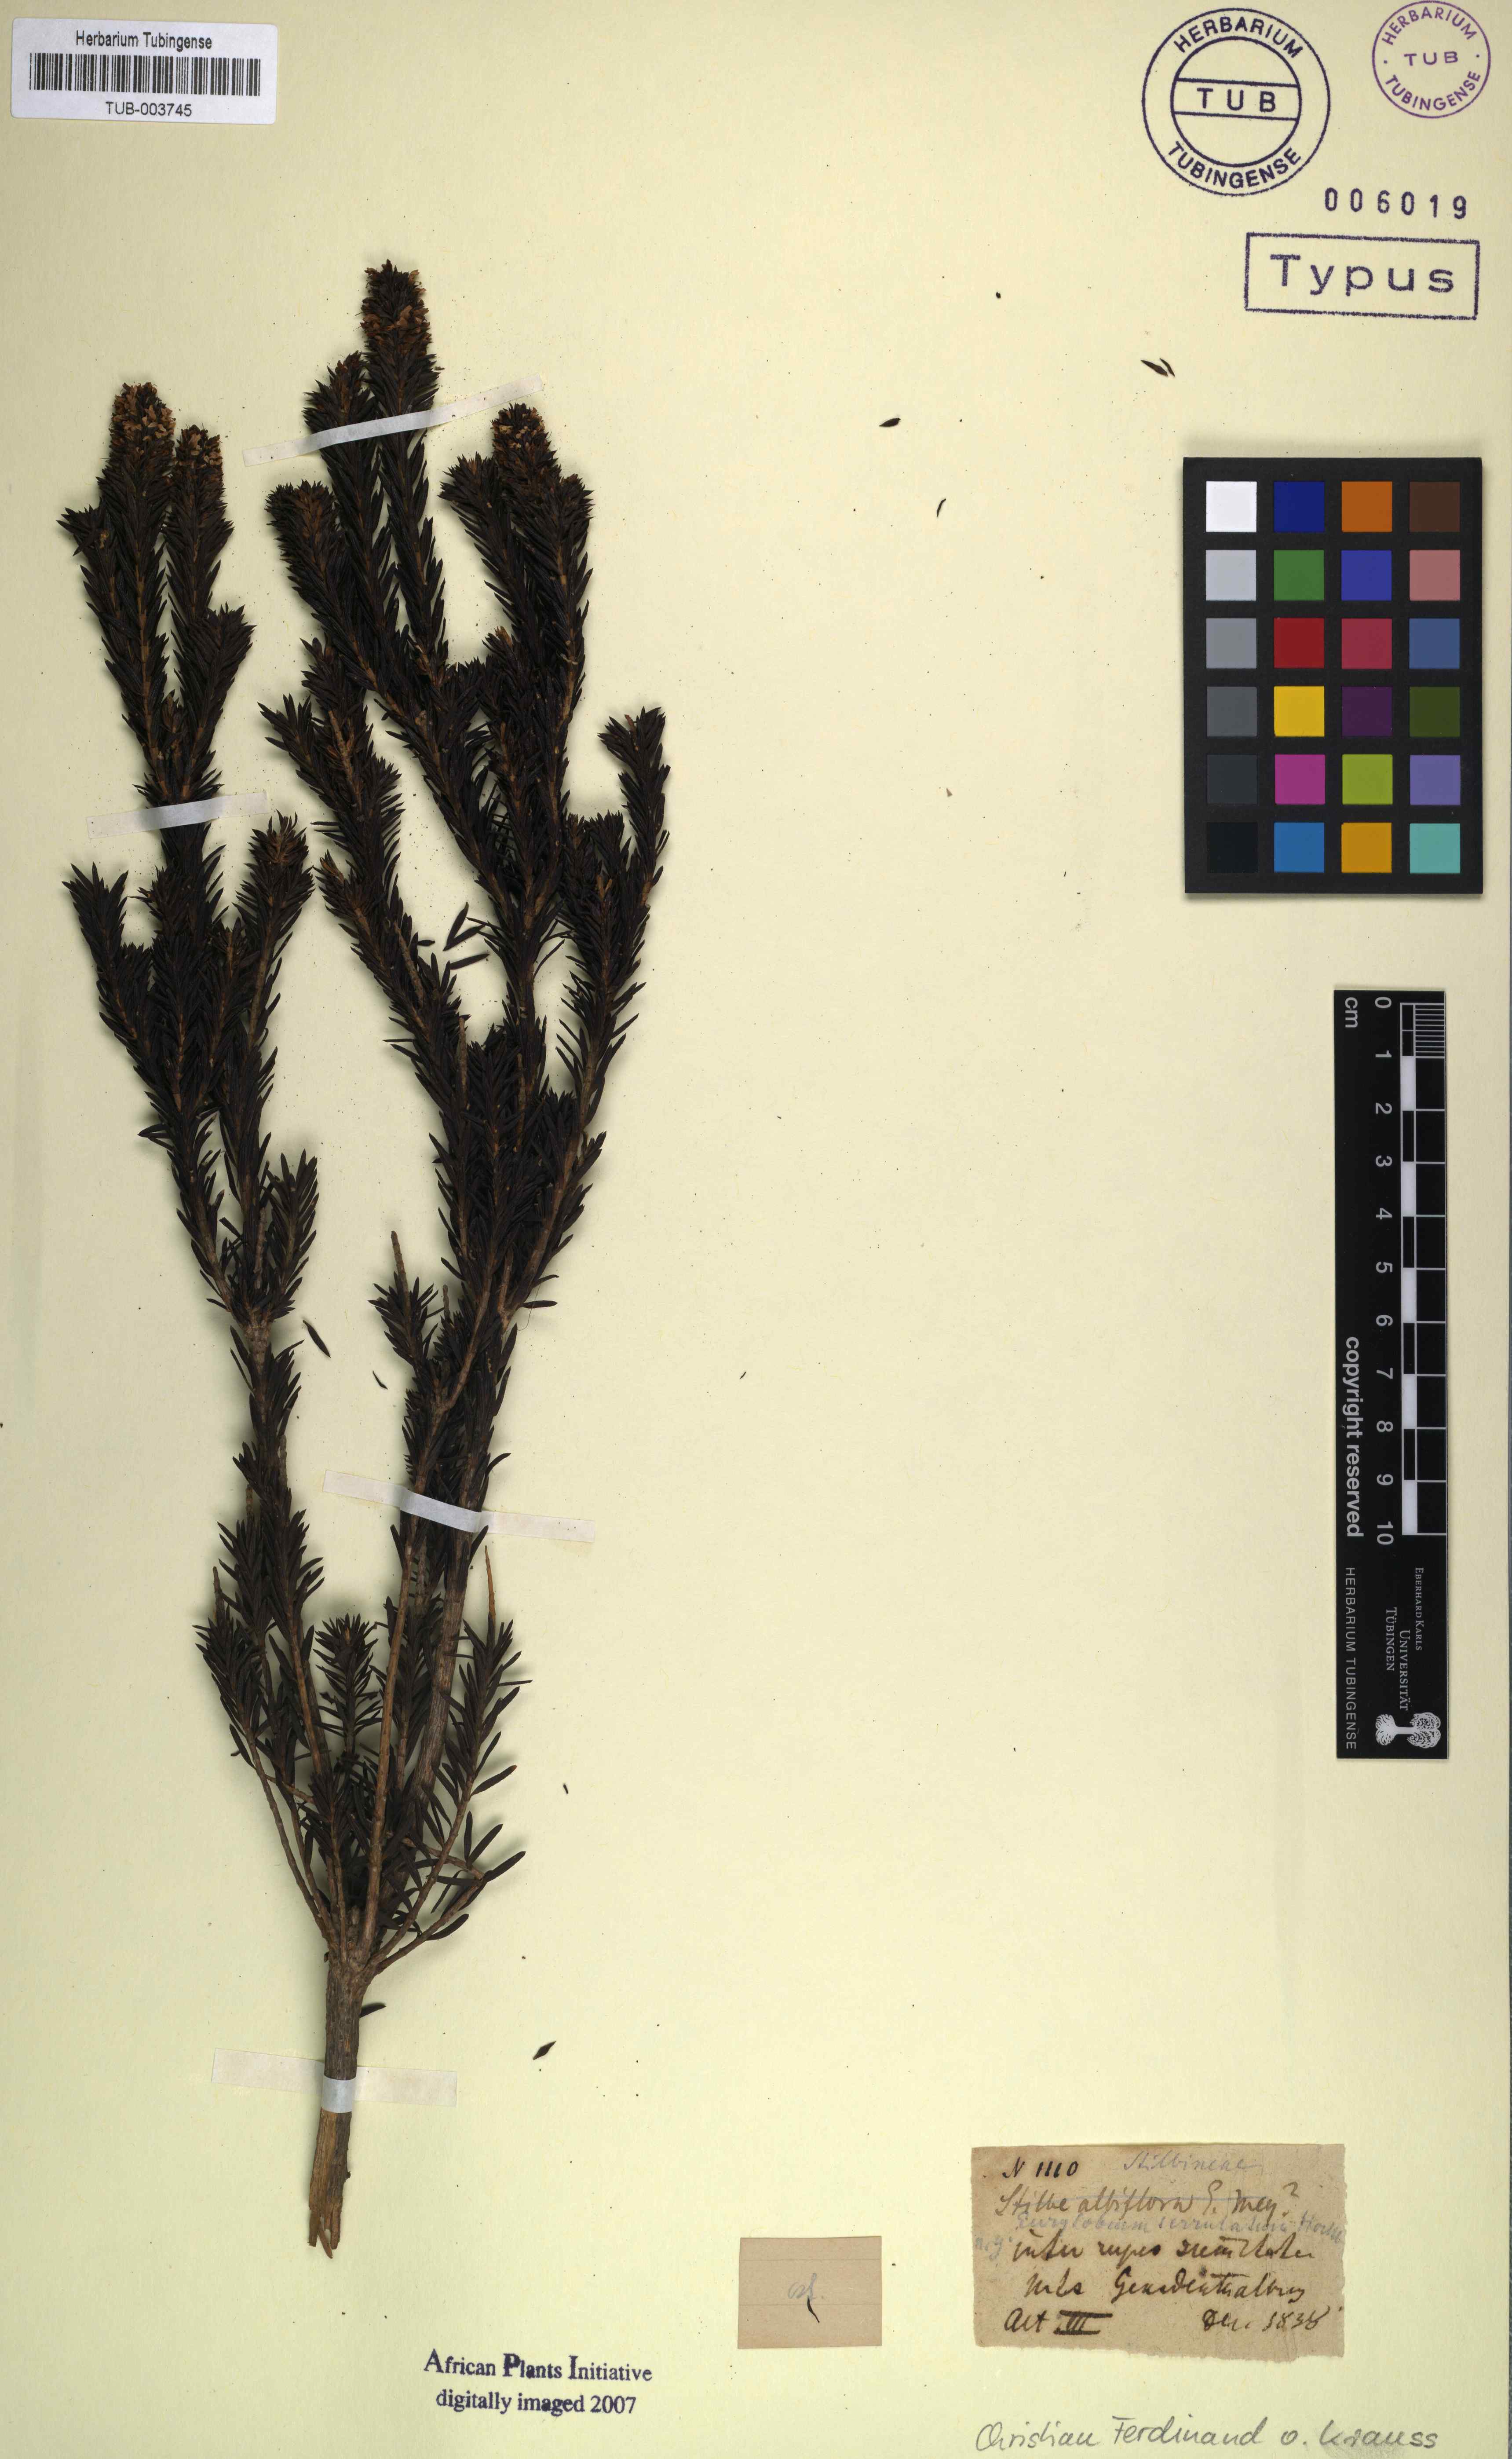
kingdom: Plantae
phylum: Tracheophyta
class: Magnoliopsida
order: Lamiales
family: Stilbaceae
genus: Stilbe
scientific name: Stilbe serrulata
